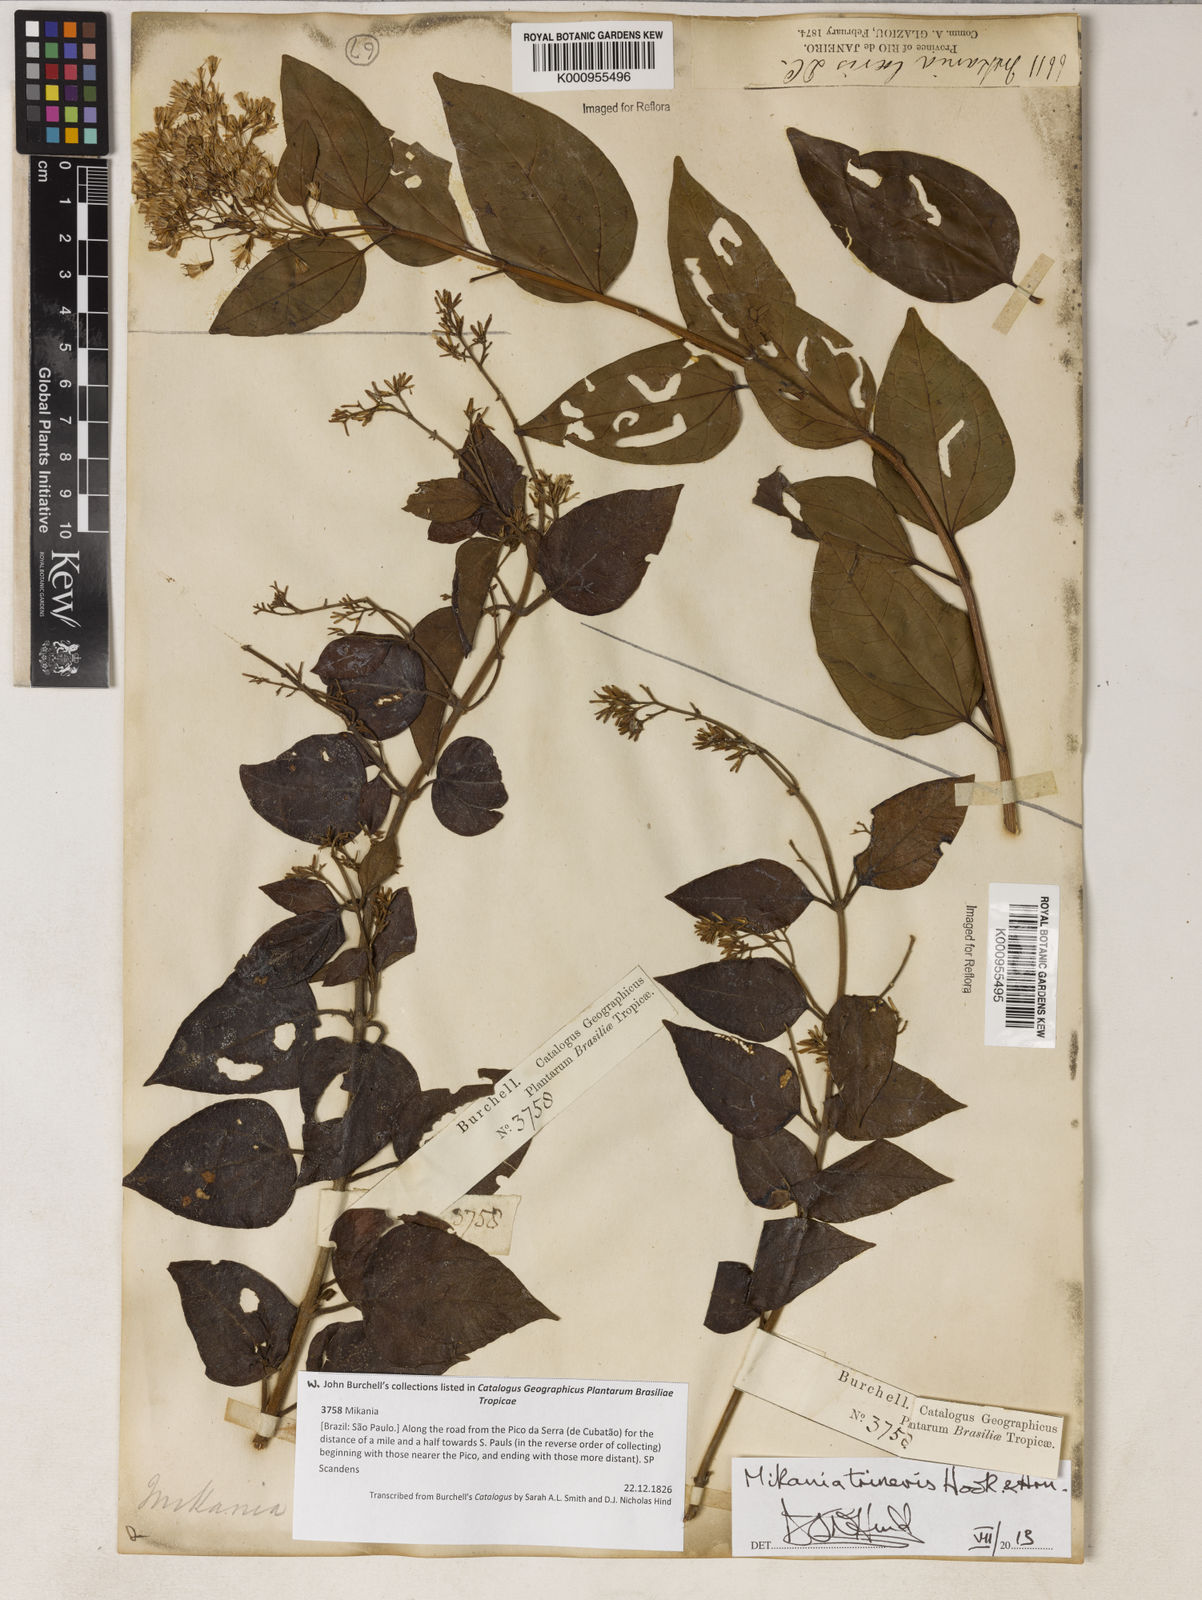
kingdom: Plantae
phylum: Tracheophyta
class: Magnoliopsida
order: Asterales
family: Asteraceae
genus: Mikania
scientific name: Mikania trinervis
